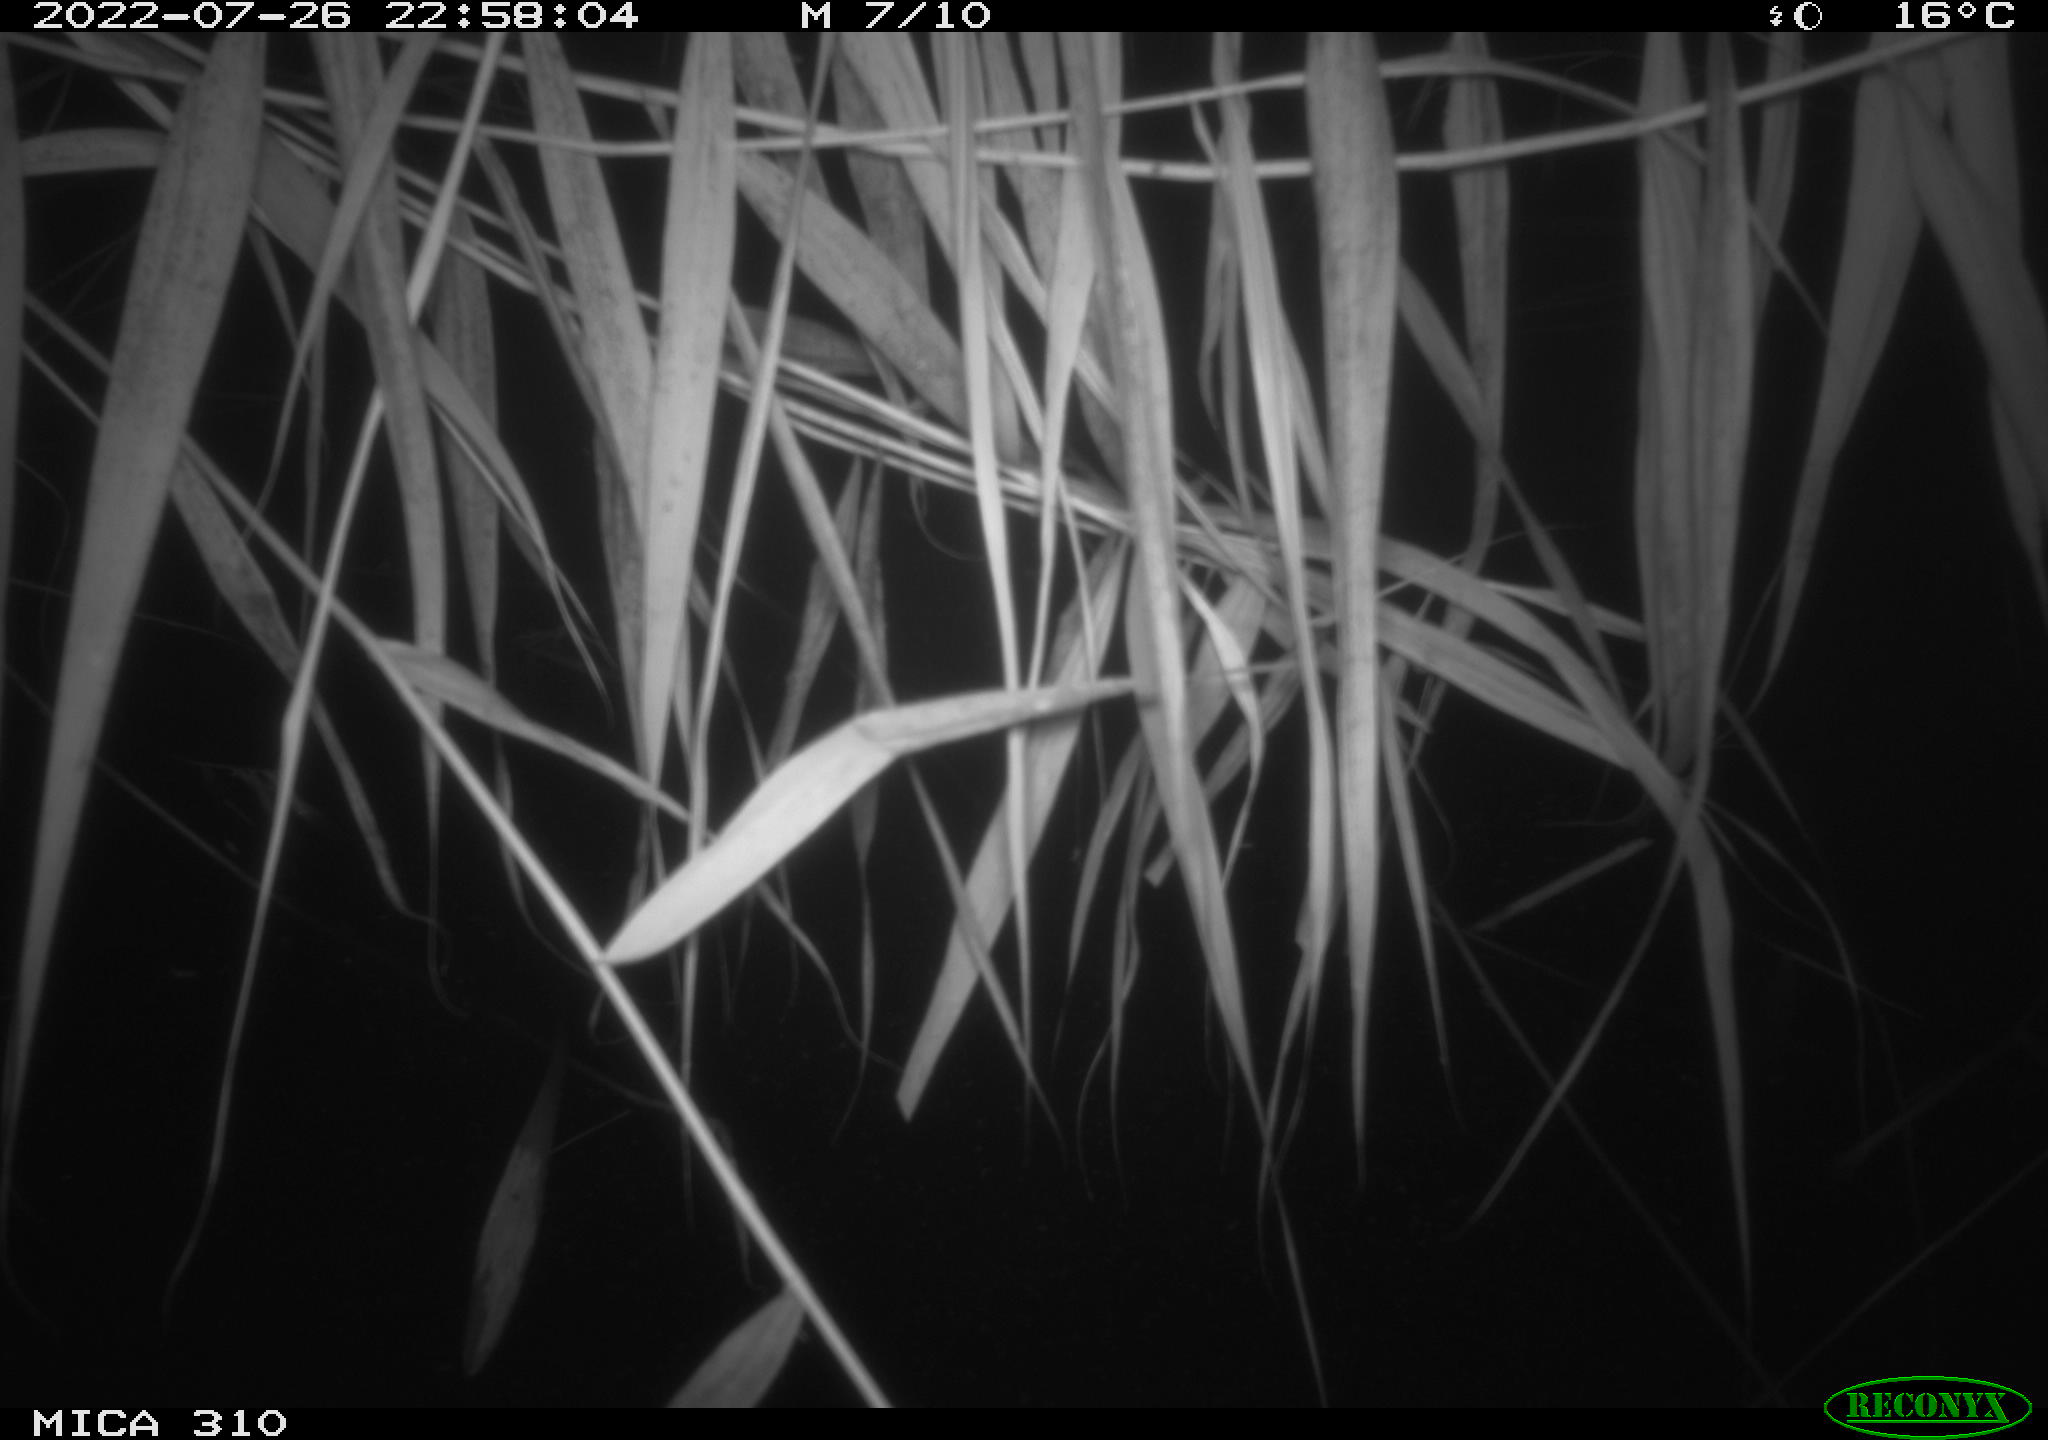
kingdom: Animalia
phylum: Chordata
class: Aves
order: Anseriformes
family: Anatidae
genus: Anas
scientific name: Anas platyrhynchos
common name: Mallard
